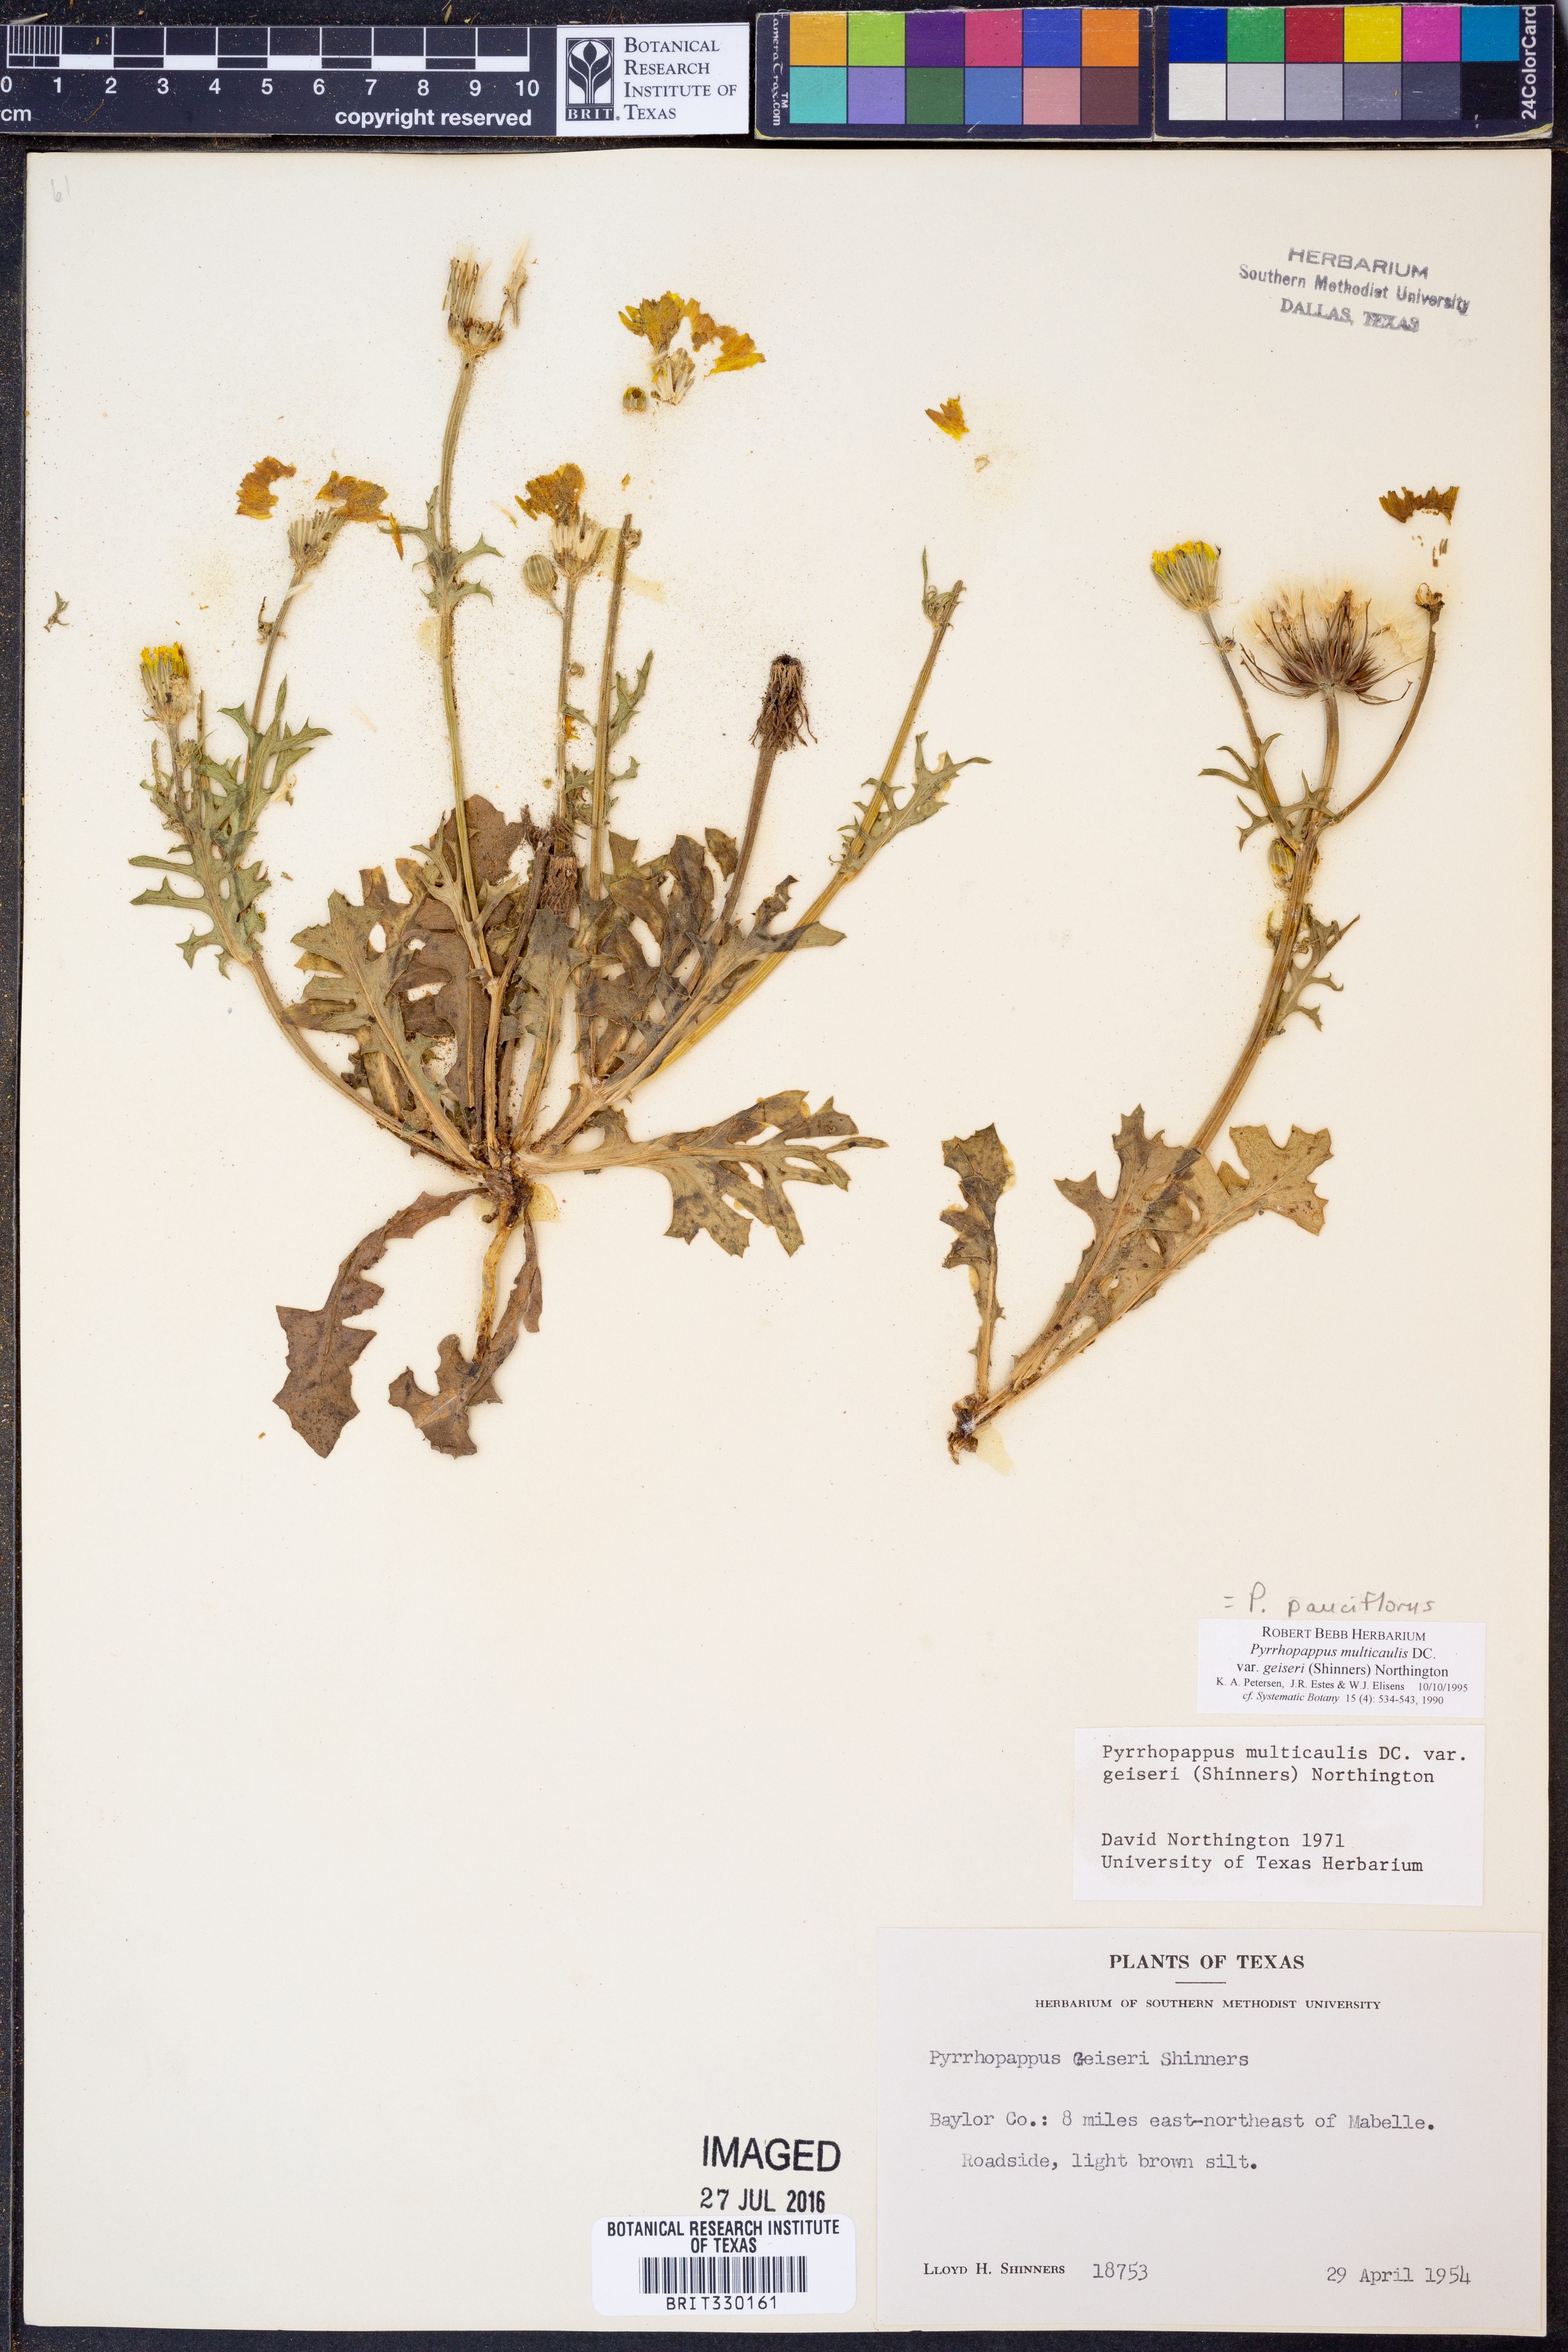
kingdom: Plantae
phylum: Tracheophyta
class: Magnoliopsida
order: Asterales
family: Asteraceae
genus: Pyrrhopappus
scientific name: Pyrrhopappus pauciflorus
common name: Texas false dandelion
